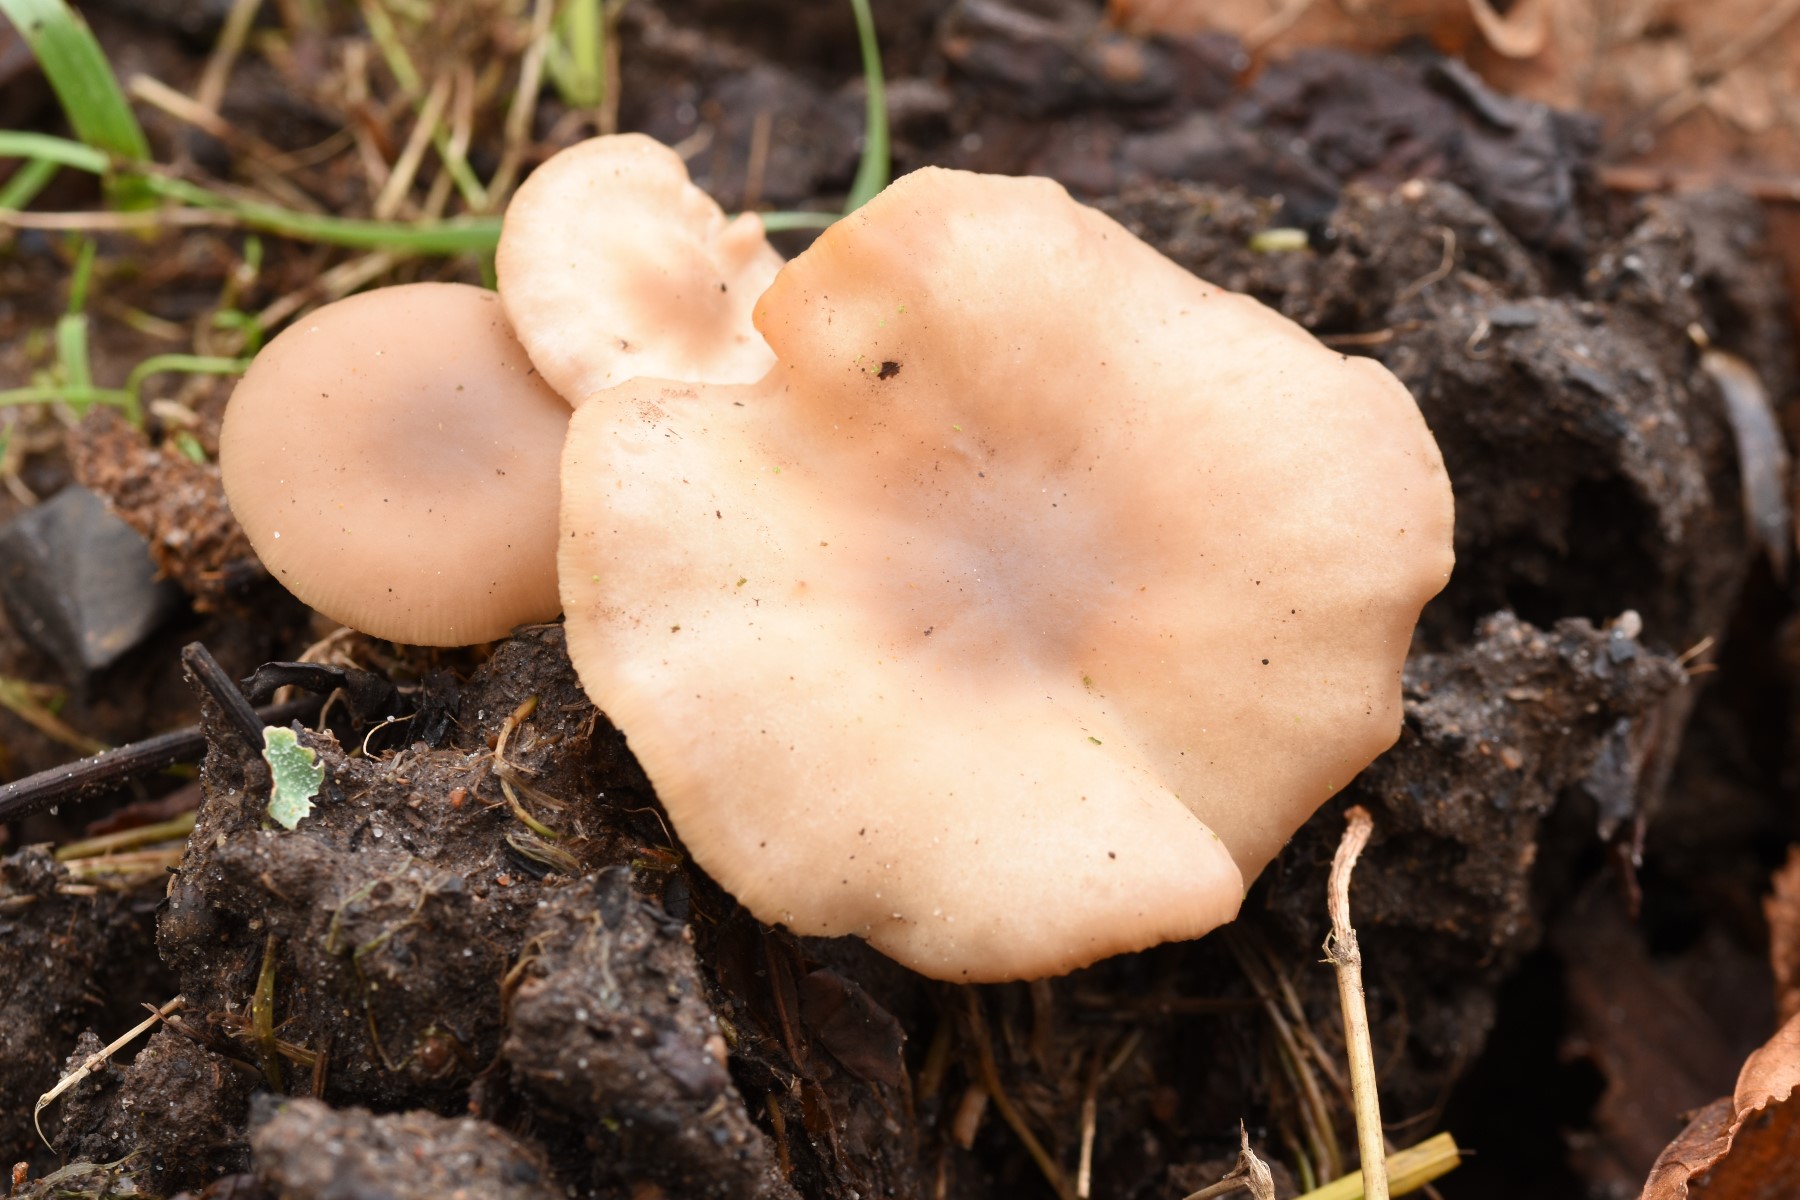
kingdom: Fungi
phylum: Basidiomycota
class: Agaricomycetes
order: Agaricales
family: Tricholomataceae
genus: Clitocybe
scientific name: Clitocybe amarescens
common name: gødnings-tragthat
